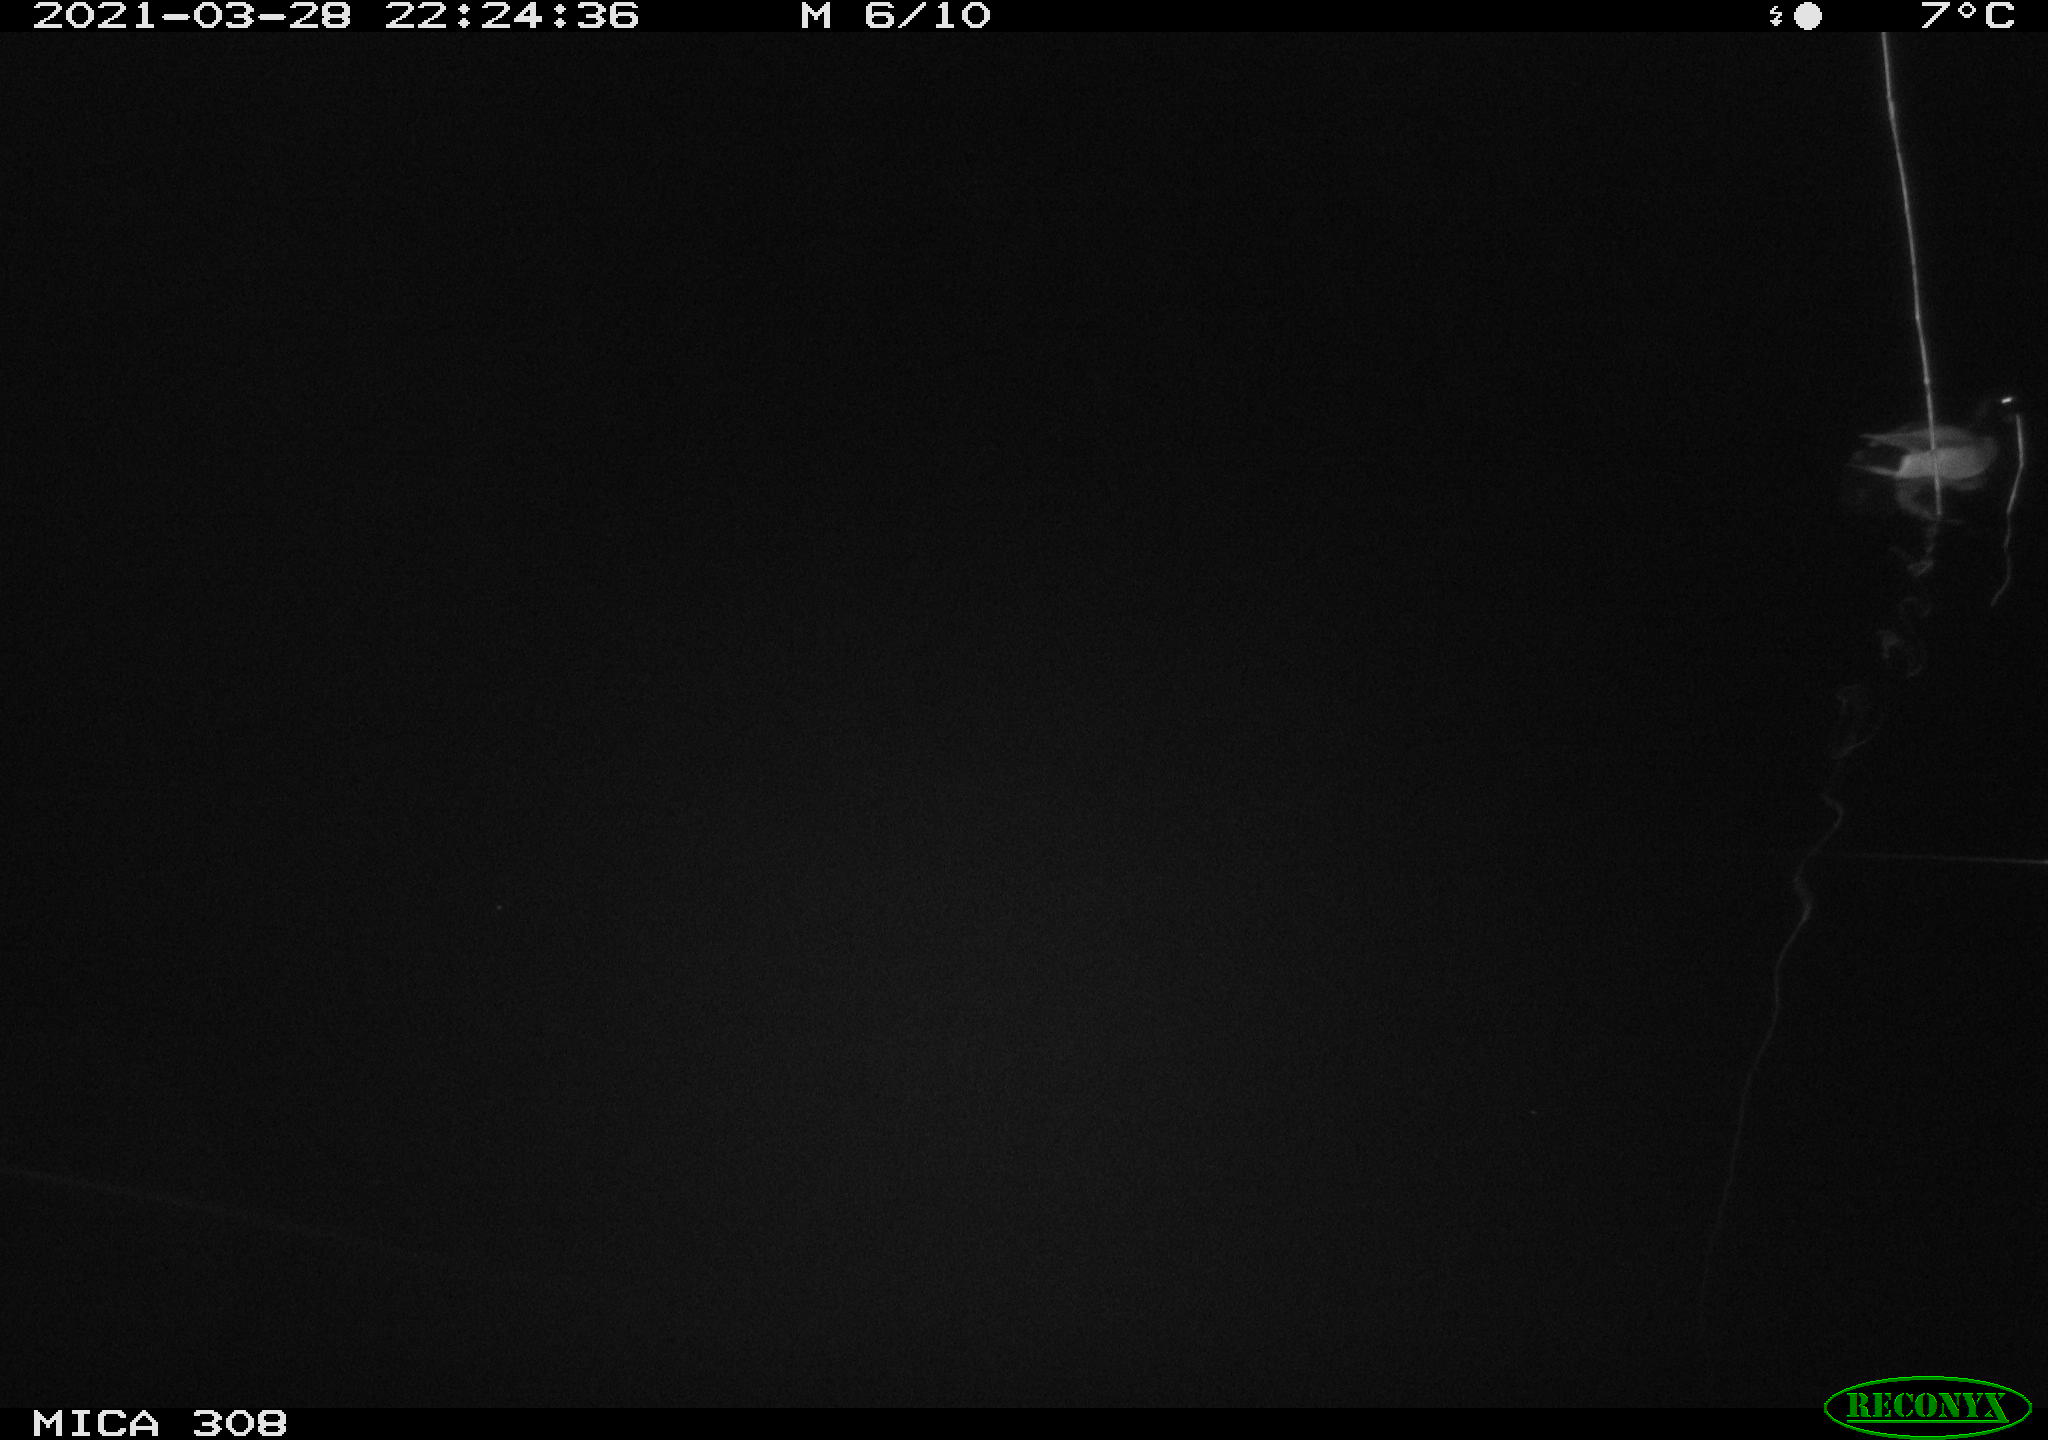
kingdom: Animalia
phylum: Chordata
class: Aves
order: Anseriformes
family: Anatidae
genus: Anas
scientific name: Anas platyrhynchos
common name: Mallard
